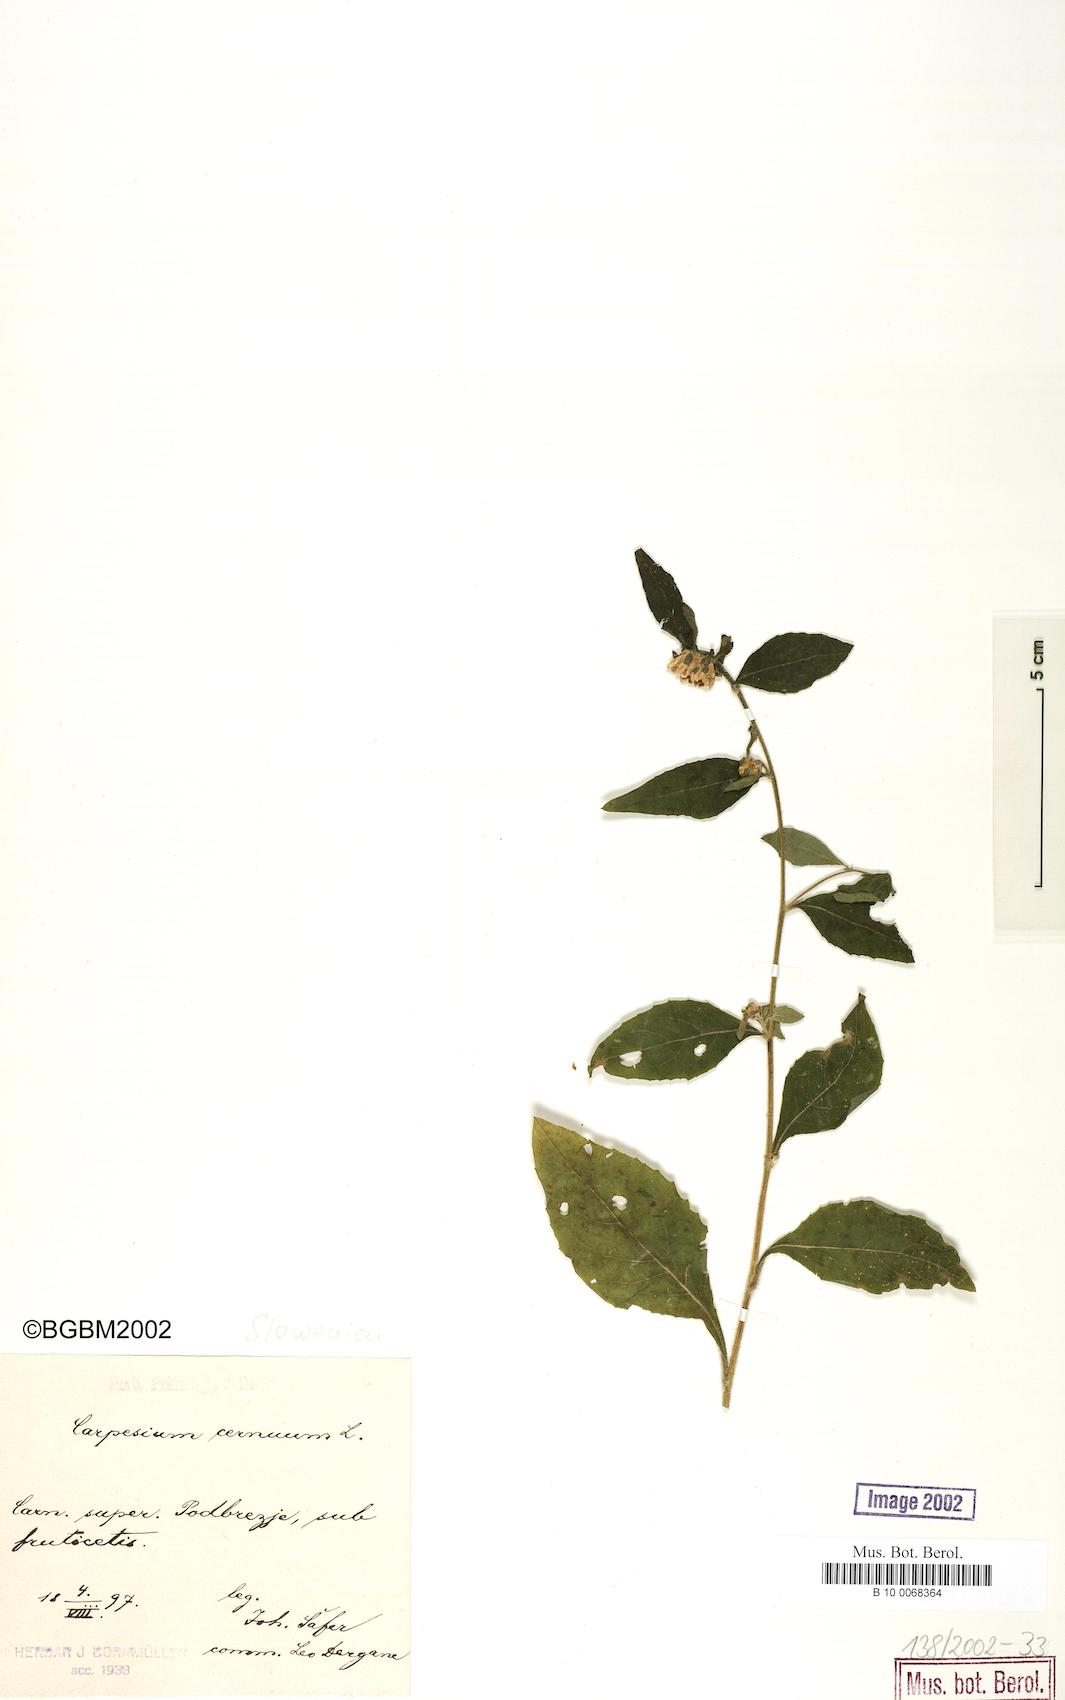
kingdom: Plantae
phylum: Tracheophyta
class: Magnoliopsida
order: Asterales
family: Asteraceae
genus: Carpesium
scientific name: Carpesium cernuum
